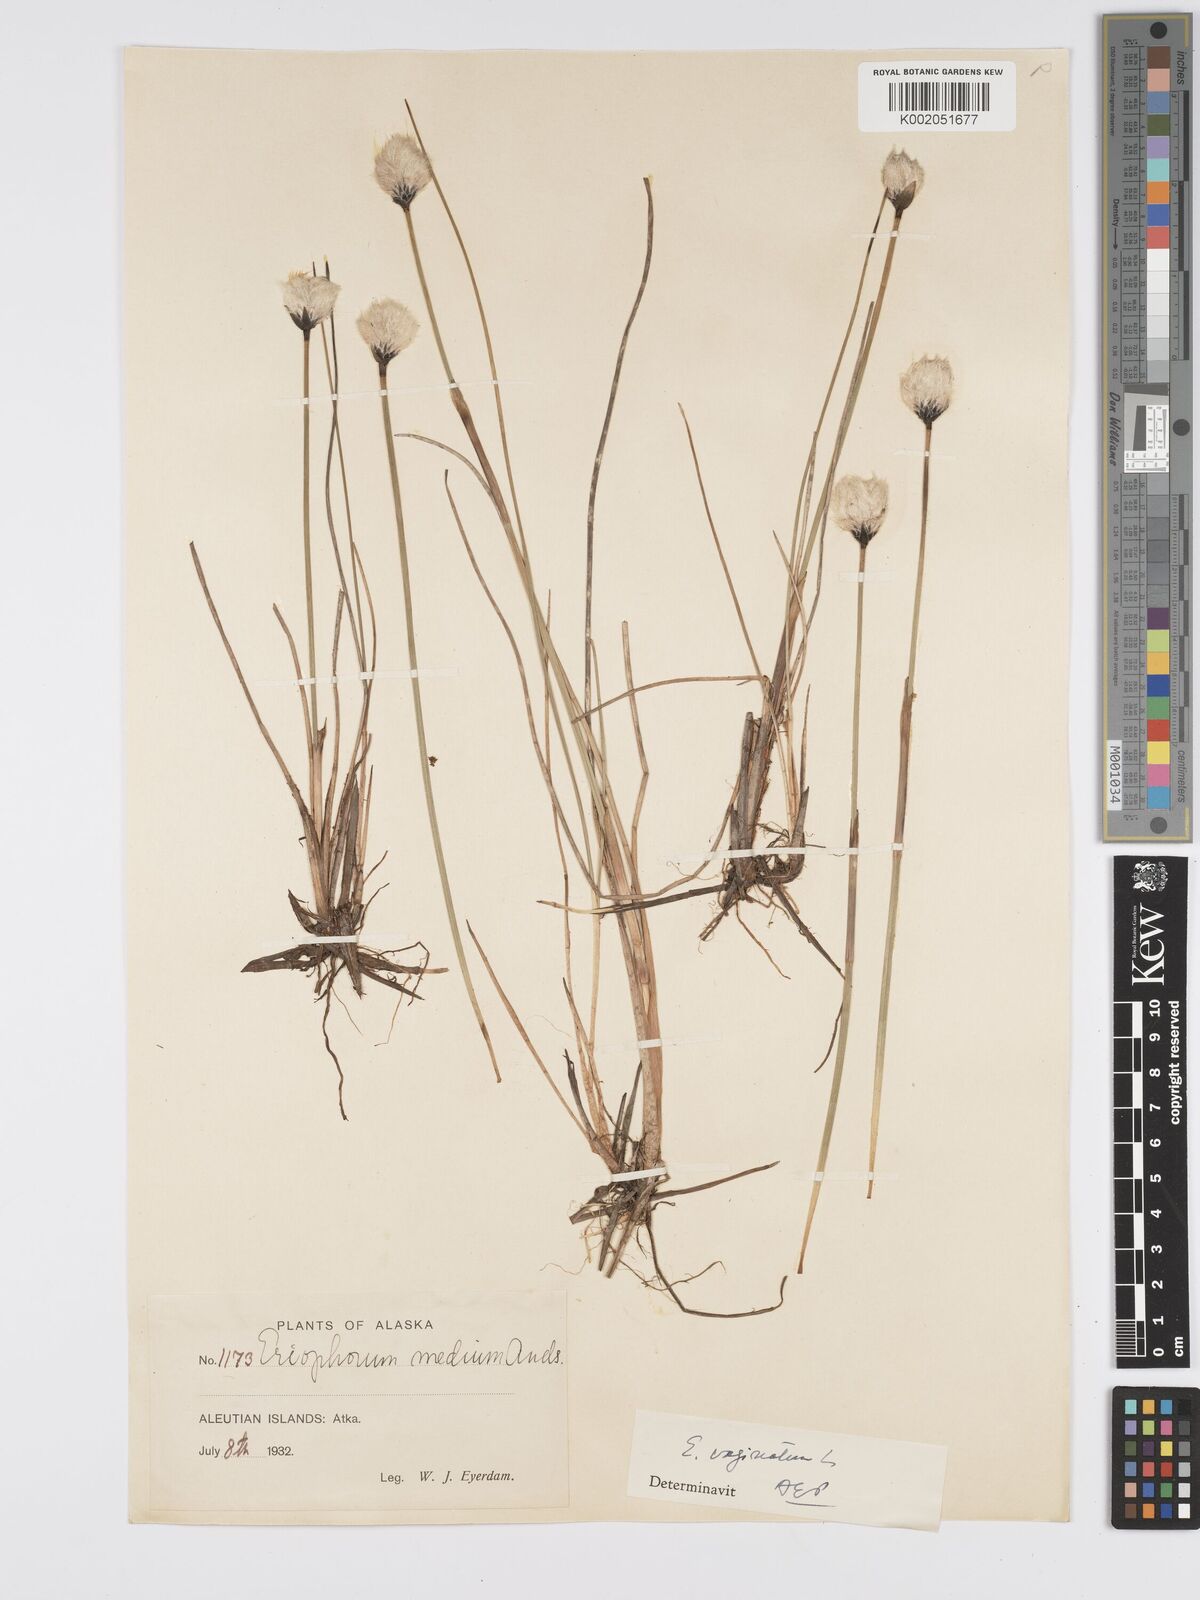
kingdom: Plantae
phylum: Tracheophyta
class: Liliopsida
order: Poales
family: Cyperaceae
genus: Eriophorum
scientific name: Eriophorum vaginatum
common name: Hare's-tail cottongrass
